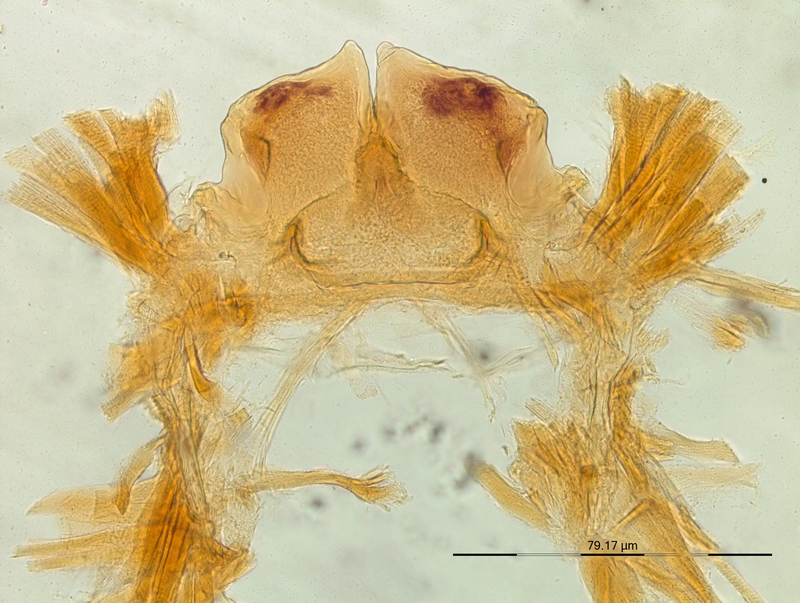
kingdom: Animalia
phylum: Arthropoda
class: Diplopoda
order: Chordeumatida
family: Craspedosomatidae
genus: Helvetiosoma
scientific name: Helvetiosoma alemannicum
